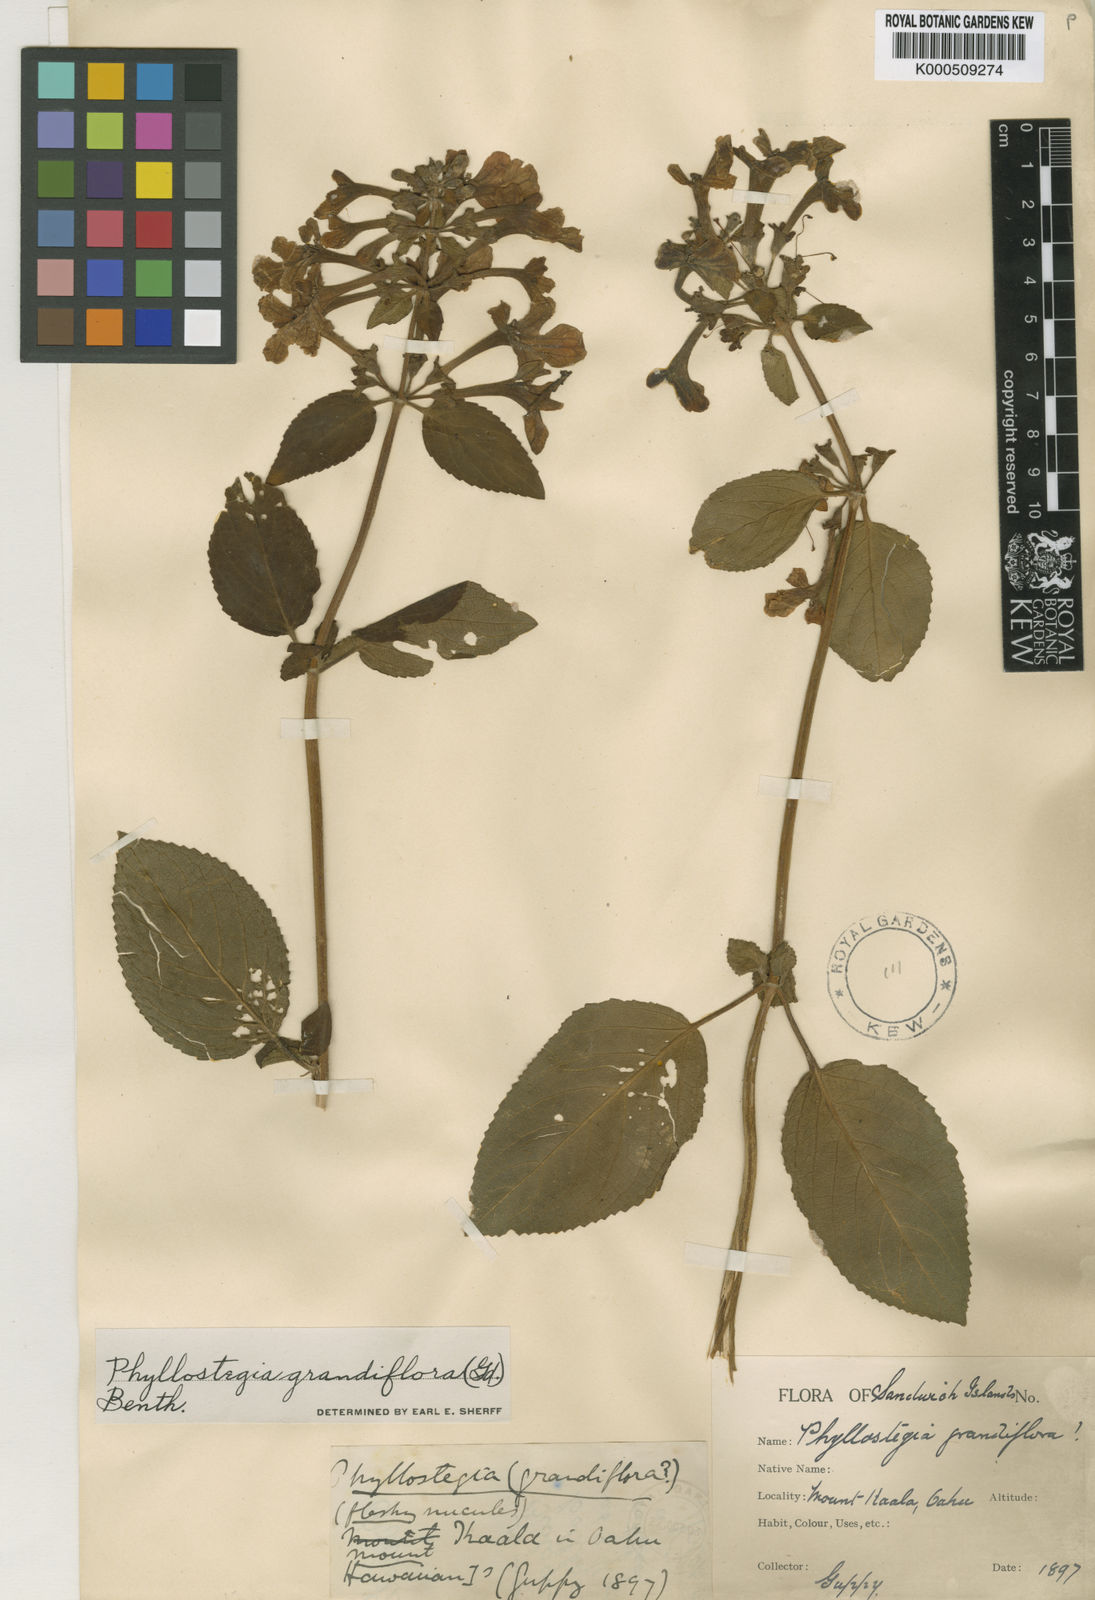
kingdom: Plantae
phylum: Tracheophyta
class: Magnoliopsida
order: Lamiales
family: Lamiaceae
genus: Phyllostegia
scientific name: Phyllostegia grandiflora
